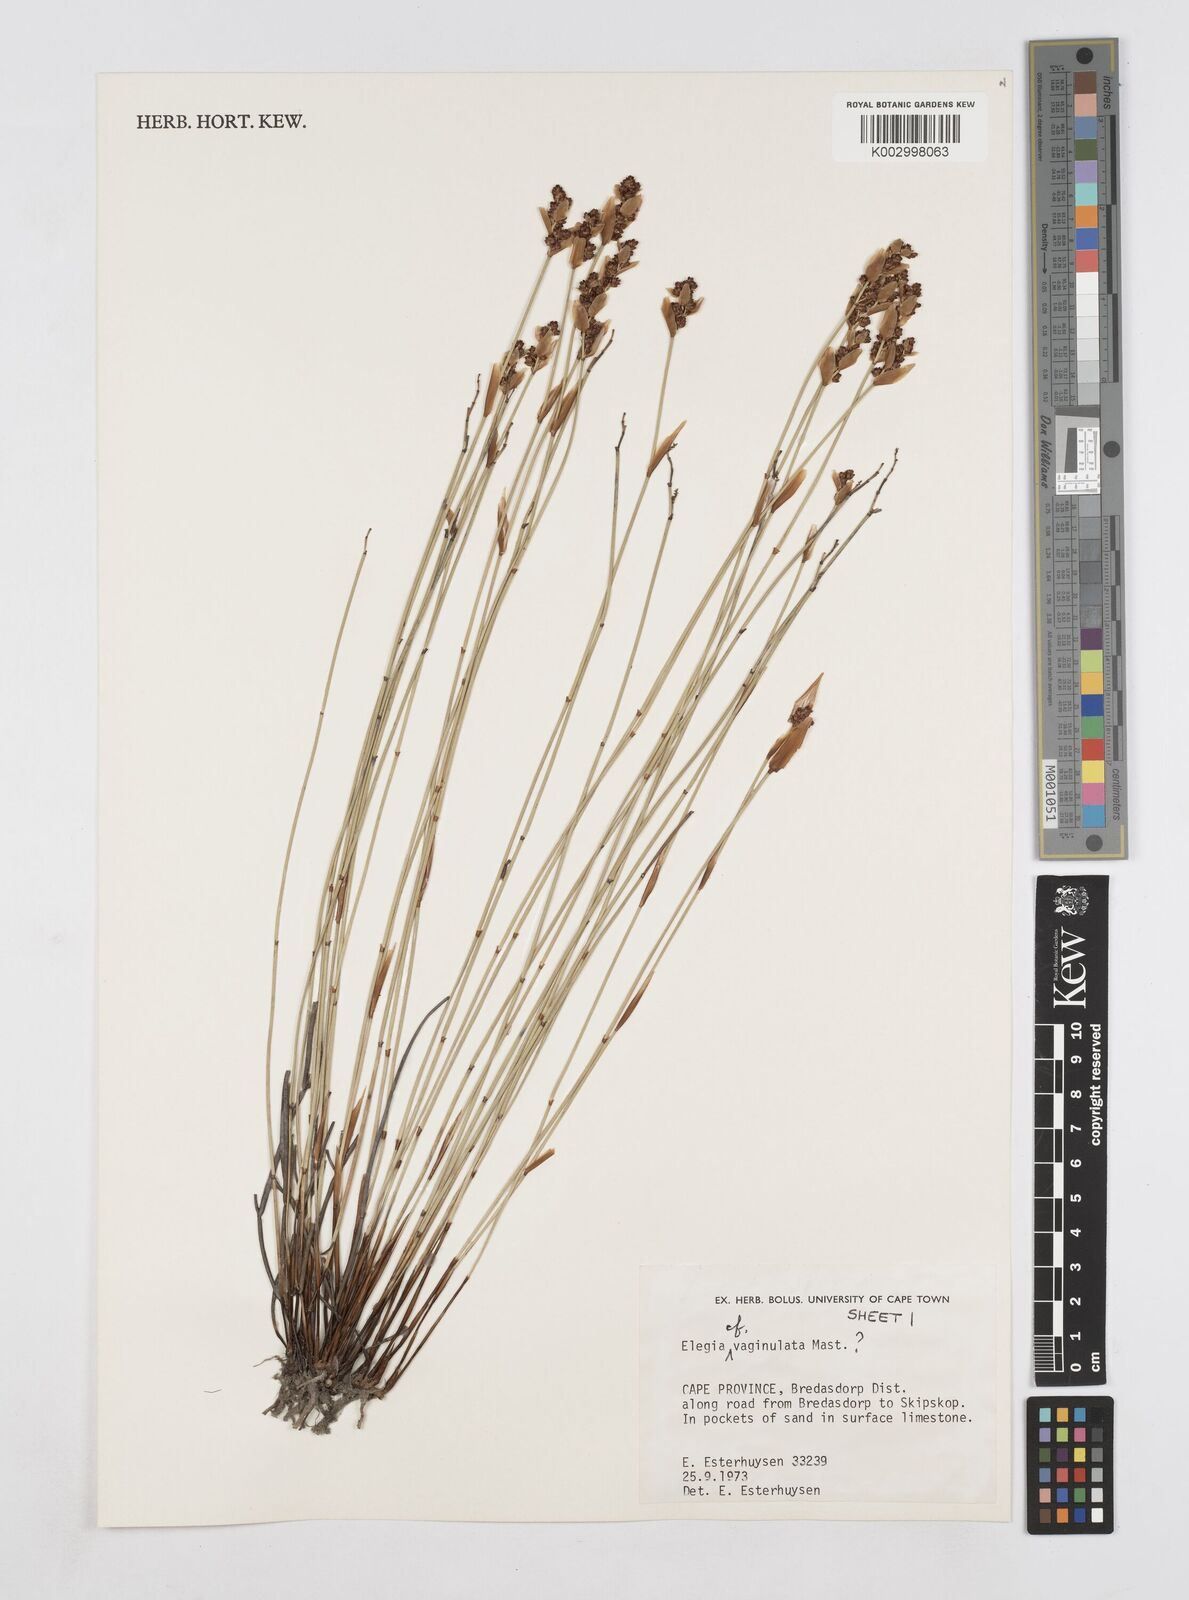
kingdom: Plantae
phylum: Tracheophyta
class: Liliopsida
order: Poales
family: Restionaceae
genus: Elegia
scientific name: Elegia vaginulata
